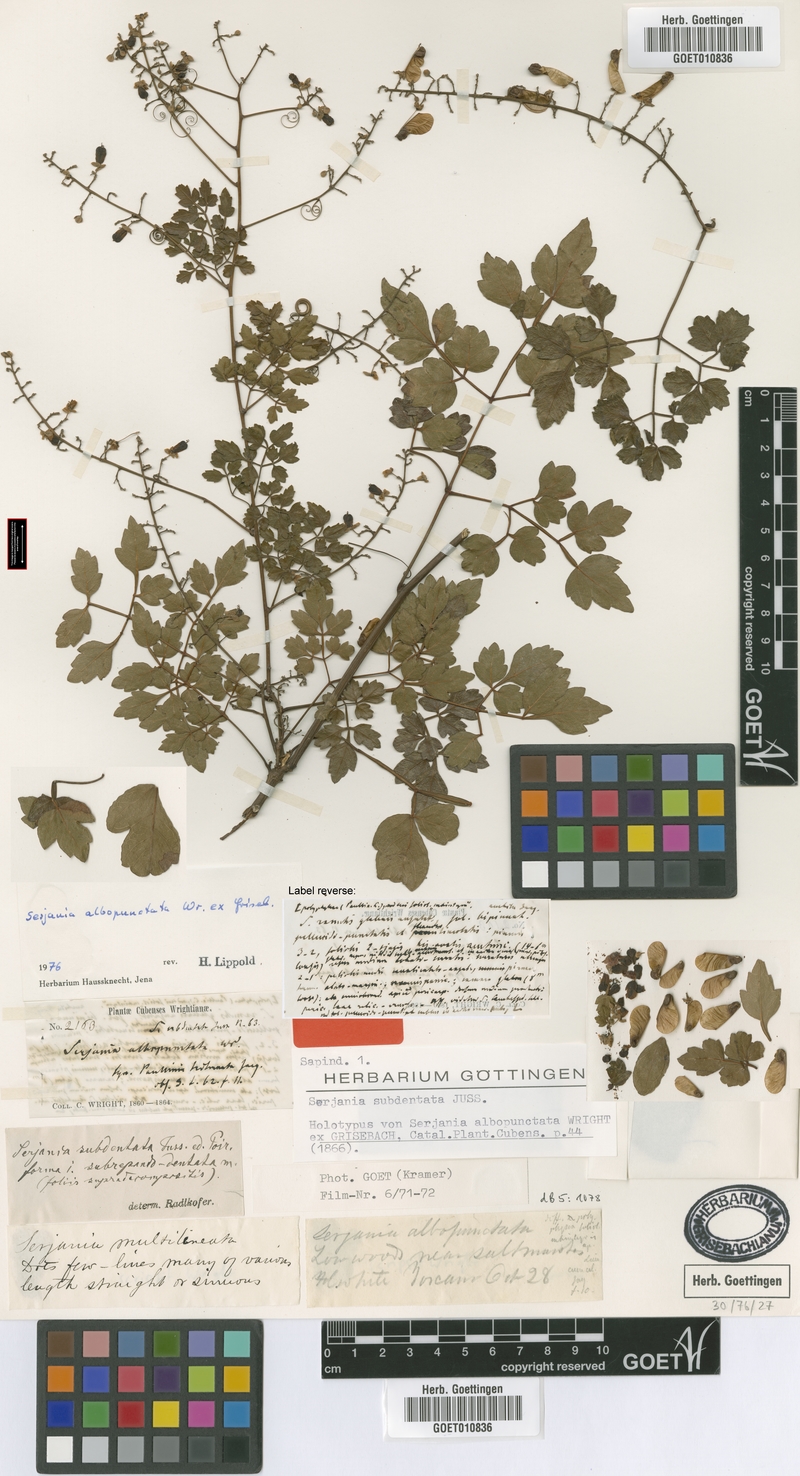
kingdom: Plantae
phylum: Tracheophyta
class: Magnoliopsida
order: Sapindales
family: Sapindaceae
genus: Serjania
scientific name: Serjania subdentata
